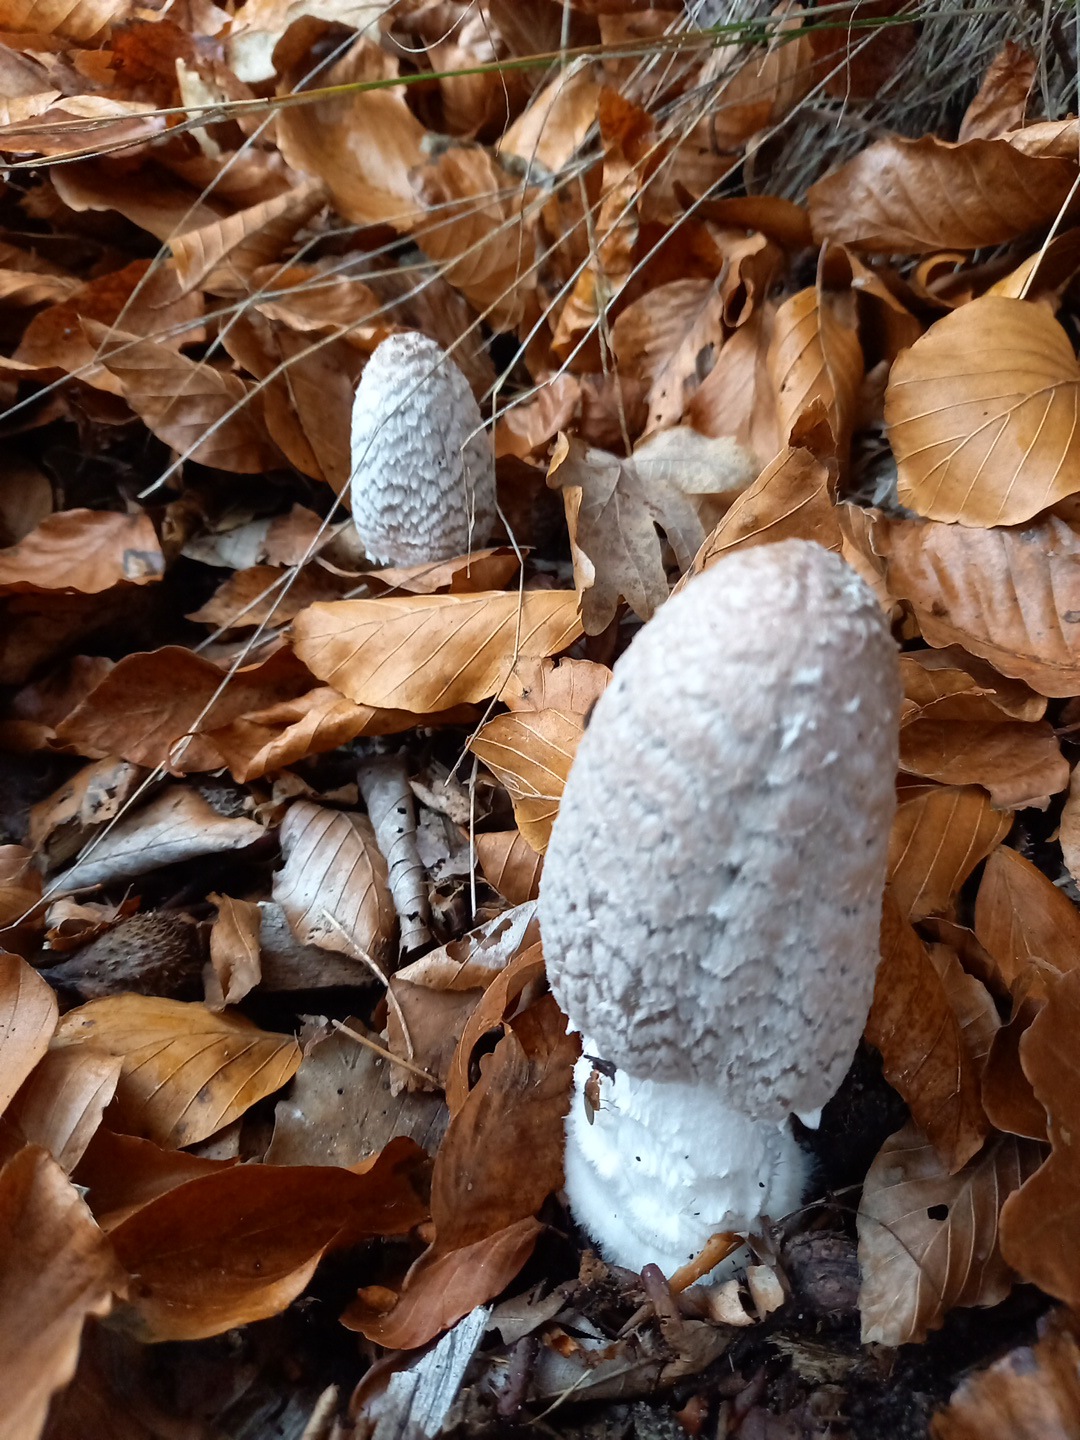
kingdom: Fungi
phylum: Basidiomycota
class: Agaricomycetes
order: Agaricales
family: Agaricaceae
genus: Coprinus
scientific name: Coprinus comatus
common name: stor parykhat
